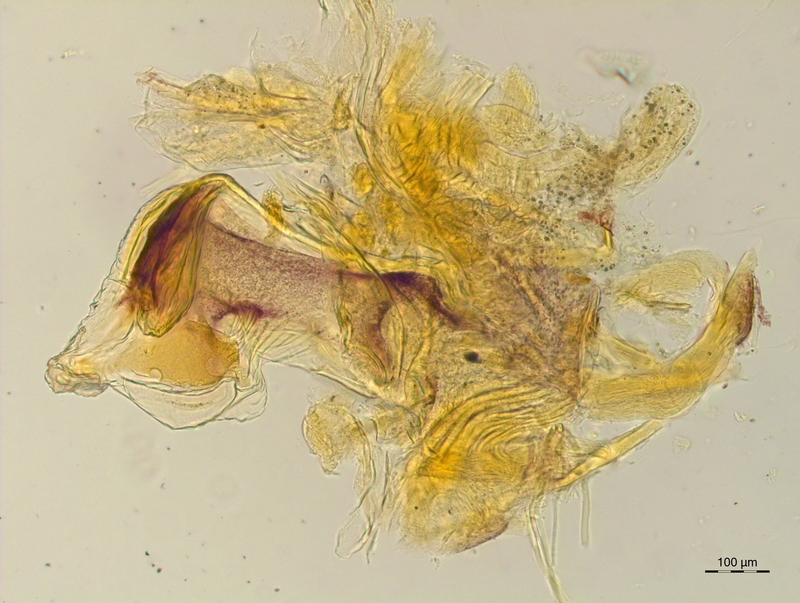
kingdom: Animalia
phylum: Arthropoda
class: Diplopoda
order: Chordeumatida
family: Craspedosomatidae
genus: Craspedosoma
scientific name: Craspedosoma slavum
